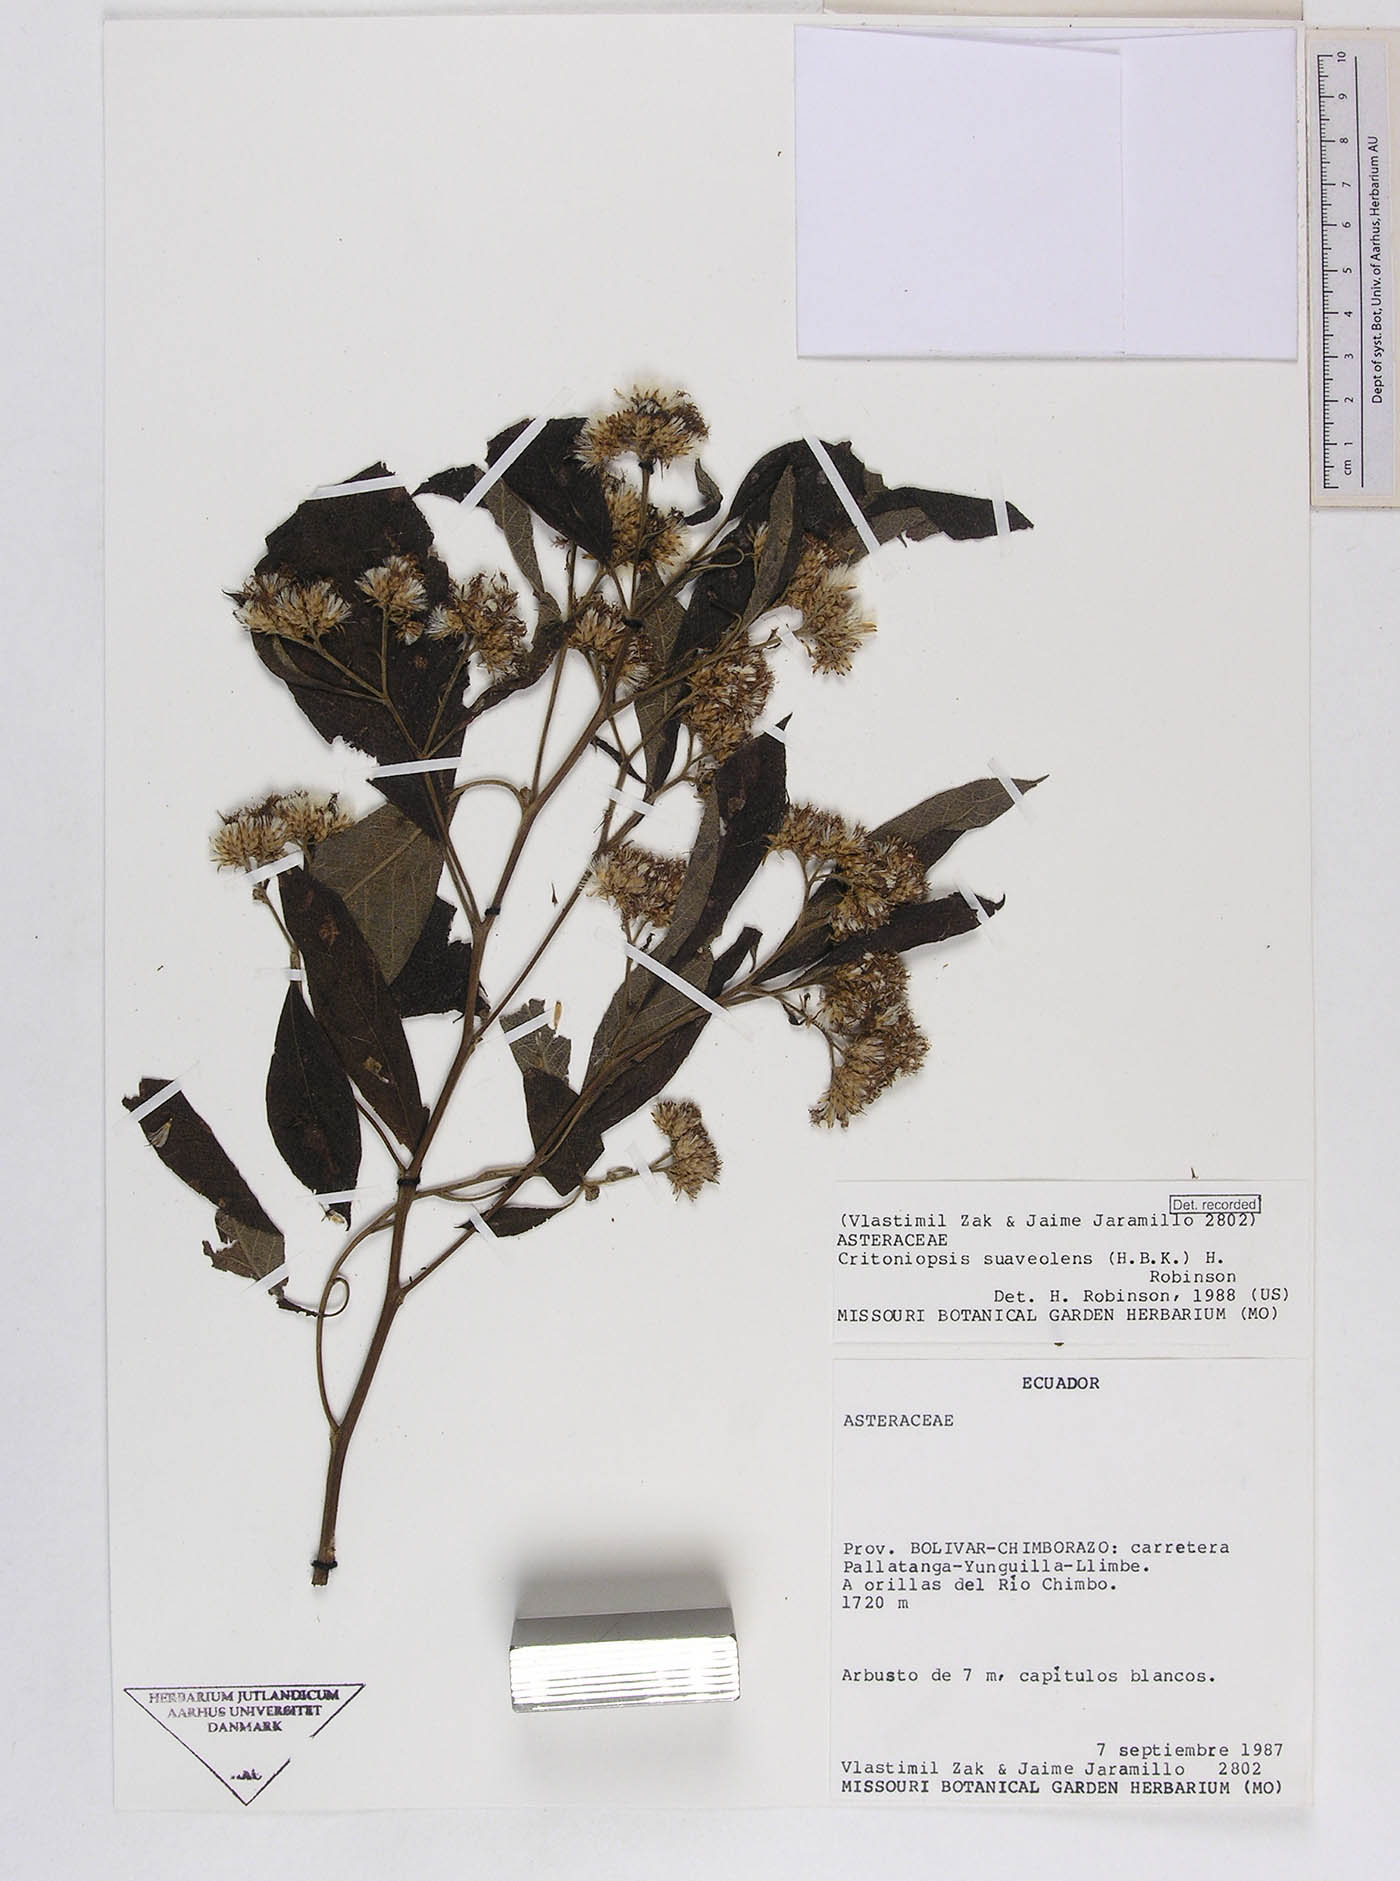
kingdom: Plantae
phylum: Tracheophyta
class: Magnoliopsida
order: Asterales
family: Asteraceae
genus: Critoniopsis
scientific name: Critoniopsis suaveolens
